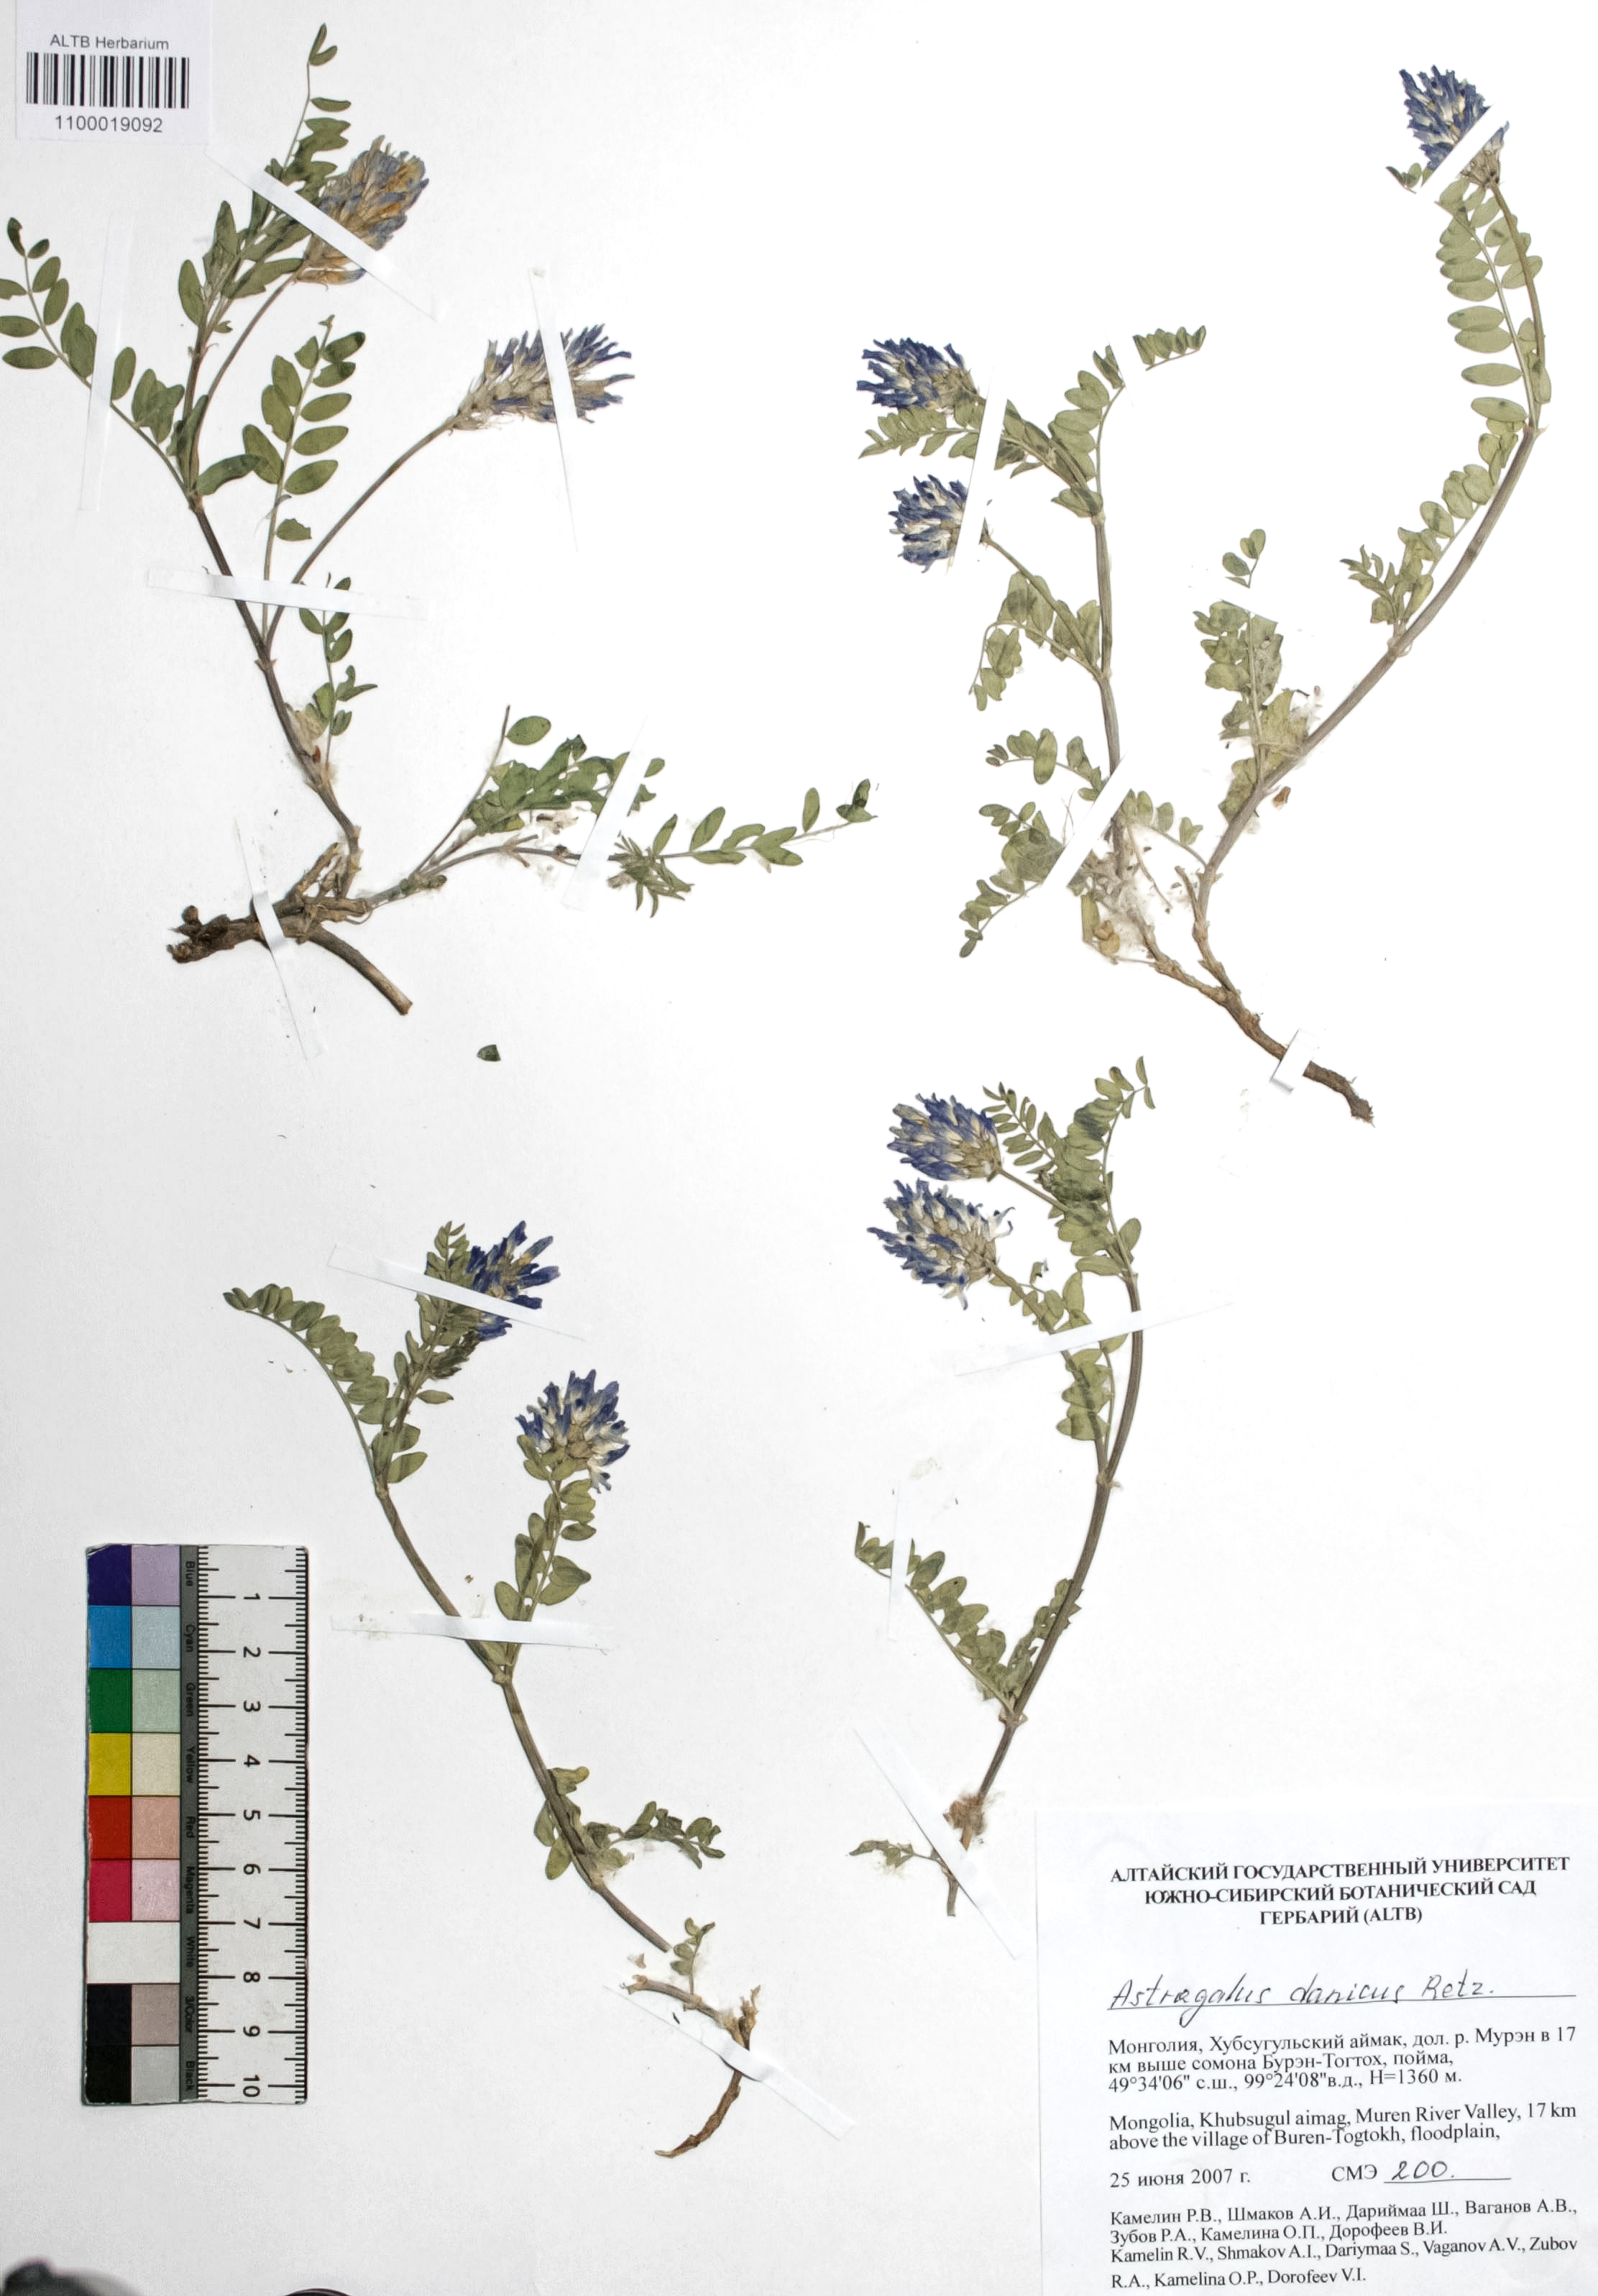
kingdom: Plantae
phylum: Tracheophyta
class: Magnoliopsida
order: Fabales
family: Fabaceae
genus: Astragalus
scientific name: Astragalus danicus
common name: Purple milk-vetch
